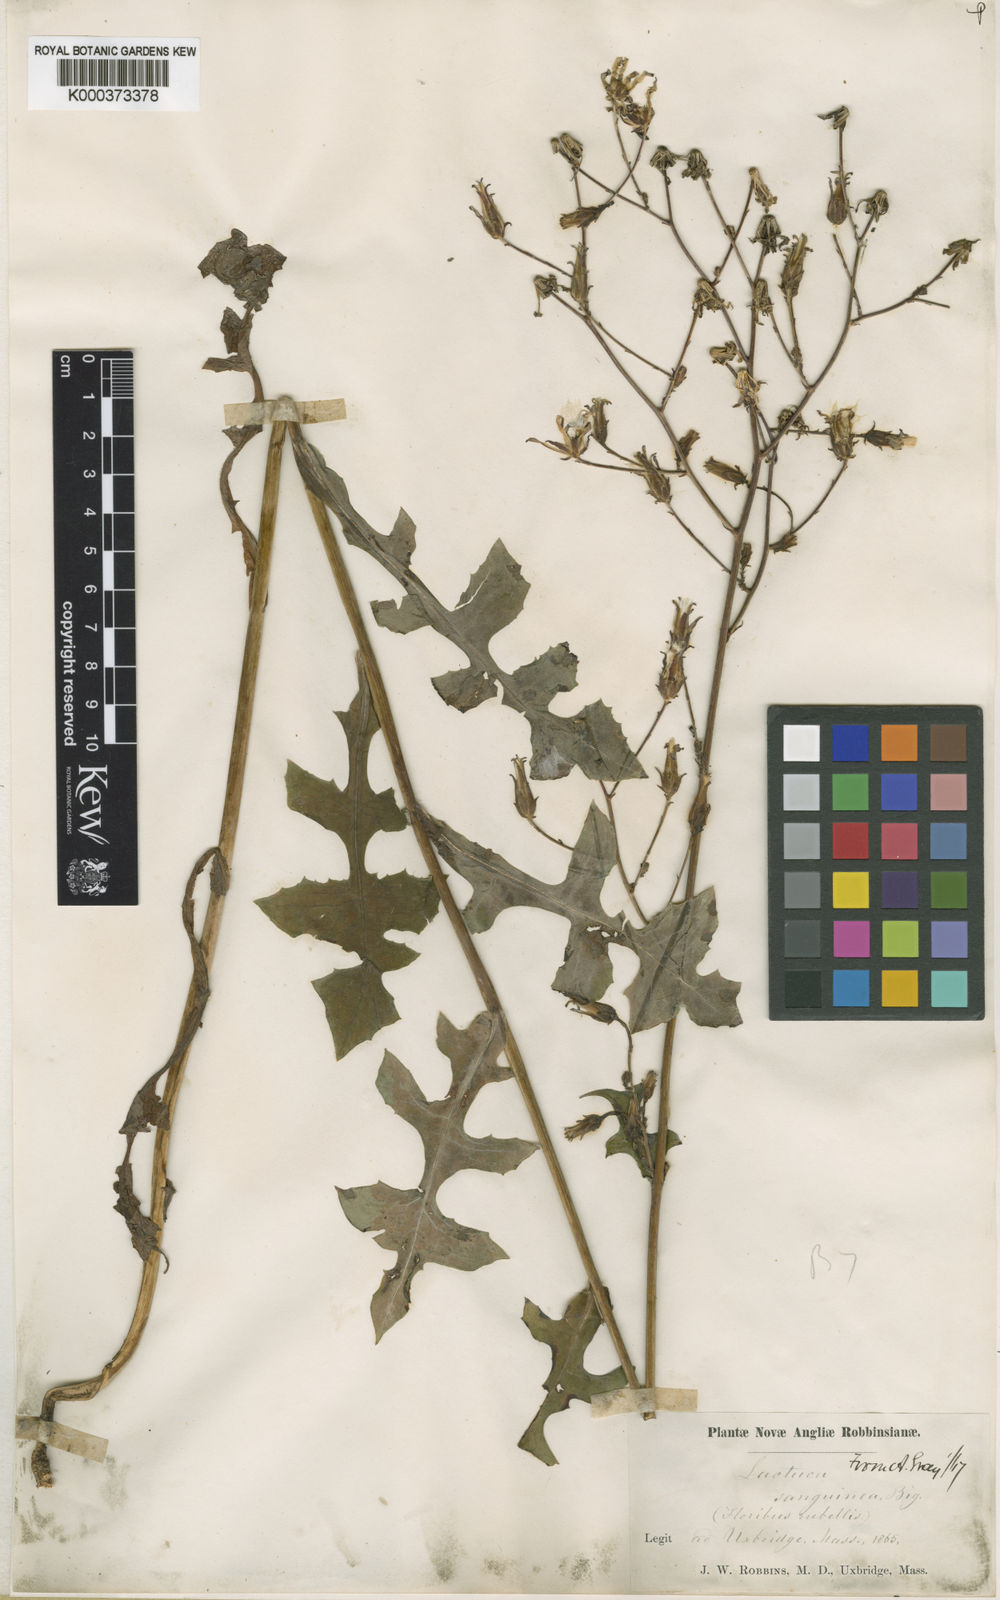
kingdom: Plantae
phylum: Tracheophyta
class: Magnoliopsida
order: Asterales
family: Asteraceae
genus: Lactuca
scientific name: Lactuca hirsuta
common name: Hairy lettuce
